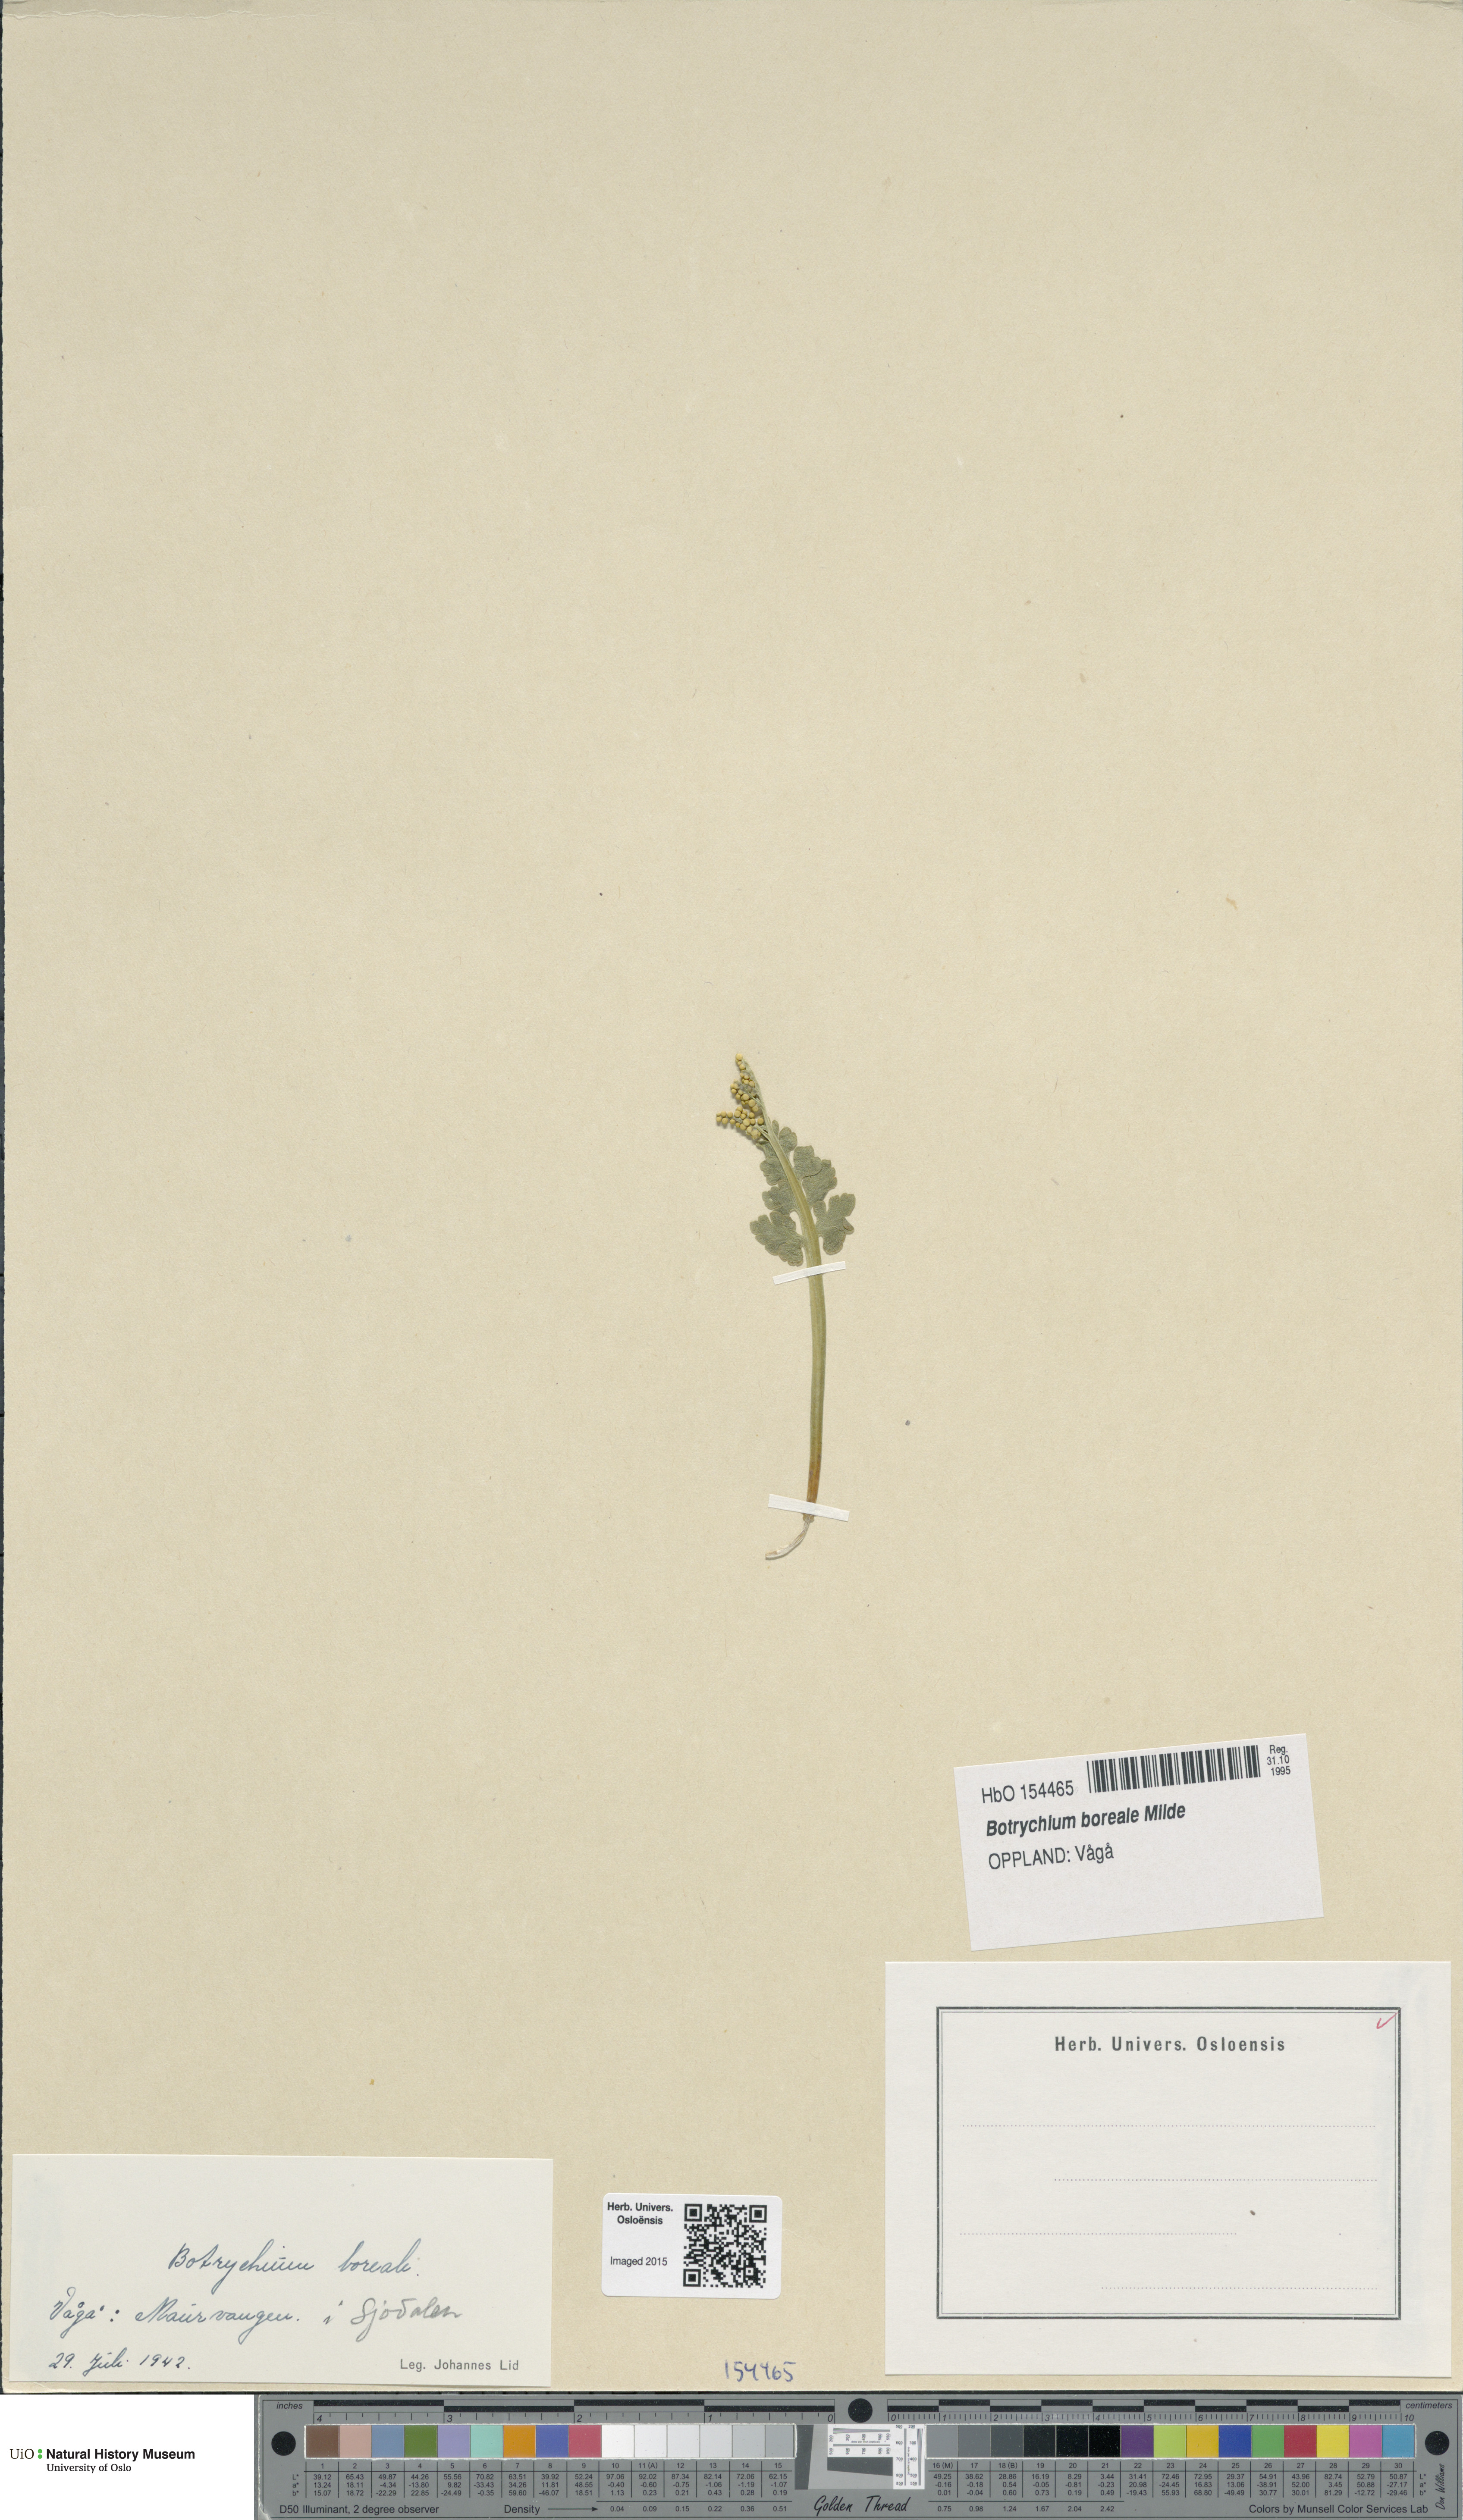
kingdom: Plantae
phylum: Tracheophyta
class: Polypodiopsida
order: Ophioglossales
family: Ophioglossaceae
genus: Botrychium
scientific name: Botrychium boreale
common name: Boreal moonwort
